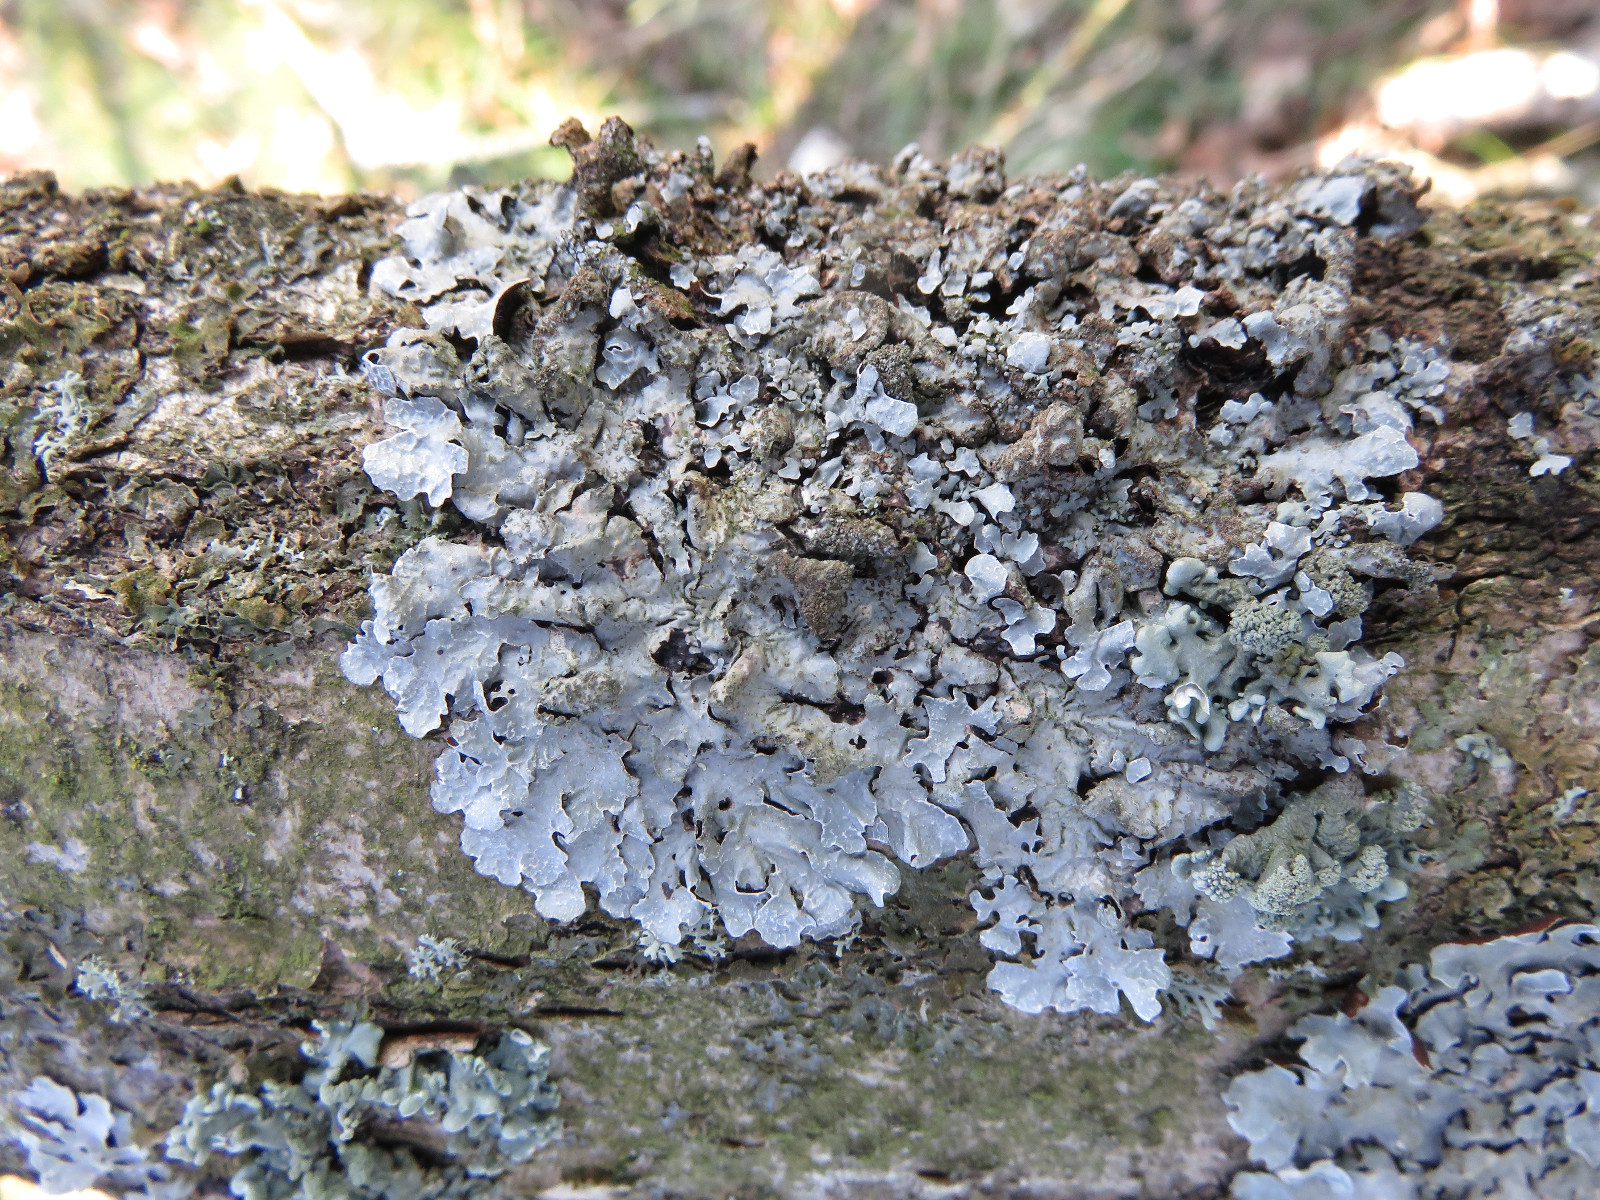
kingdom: Fungi
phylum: Ascomycota
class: Lecanoromycetes
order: Lecanorales
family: Parmeliaceae
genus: Parmelia
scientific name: Parmelia sulcata
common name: rynket skållav
